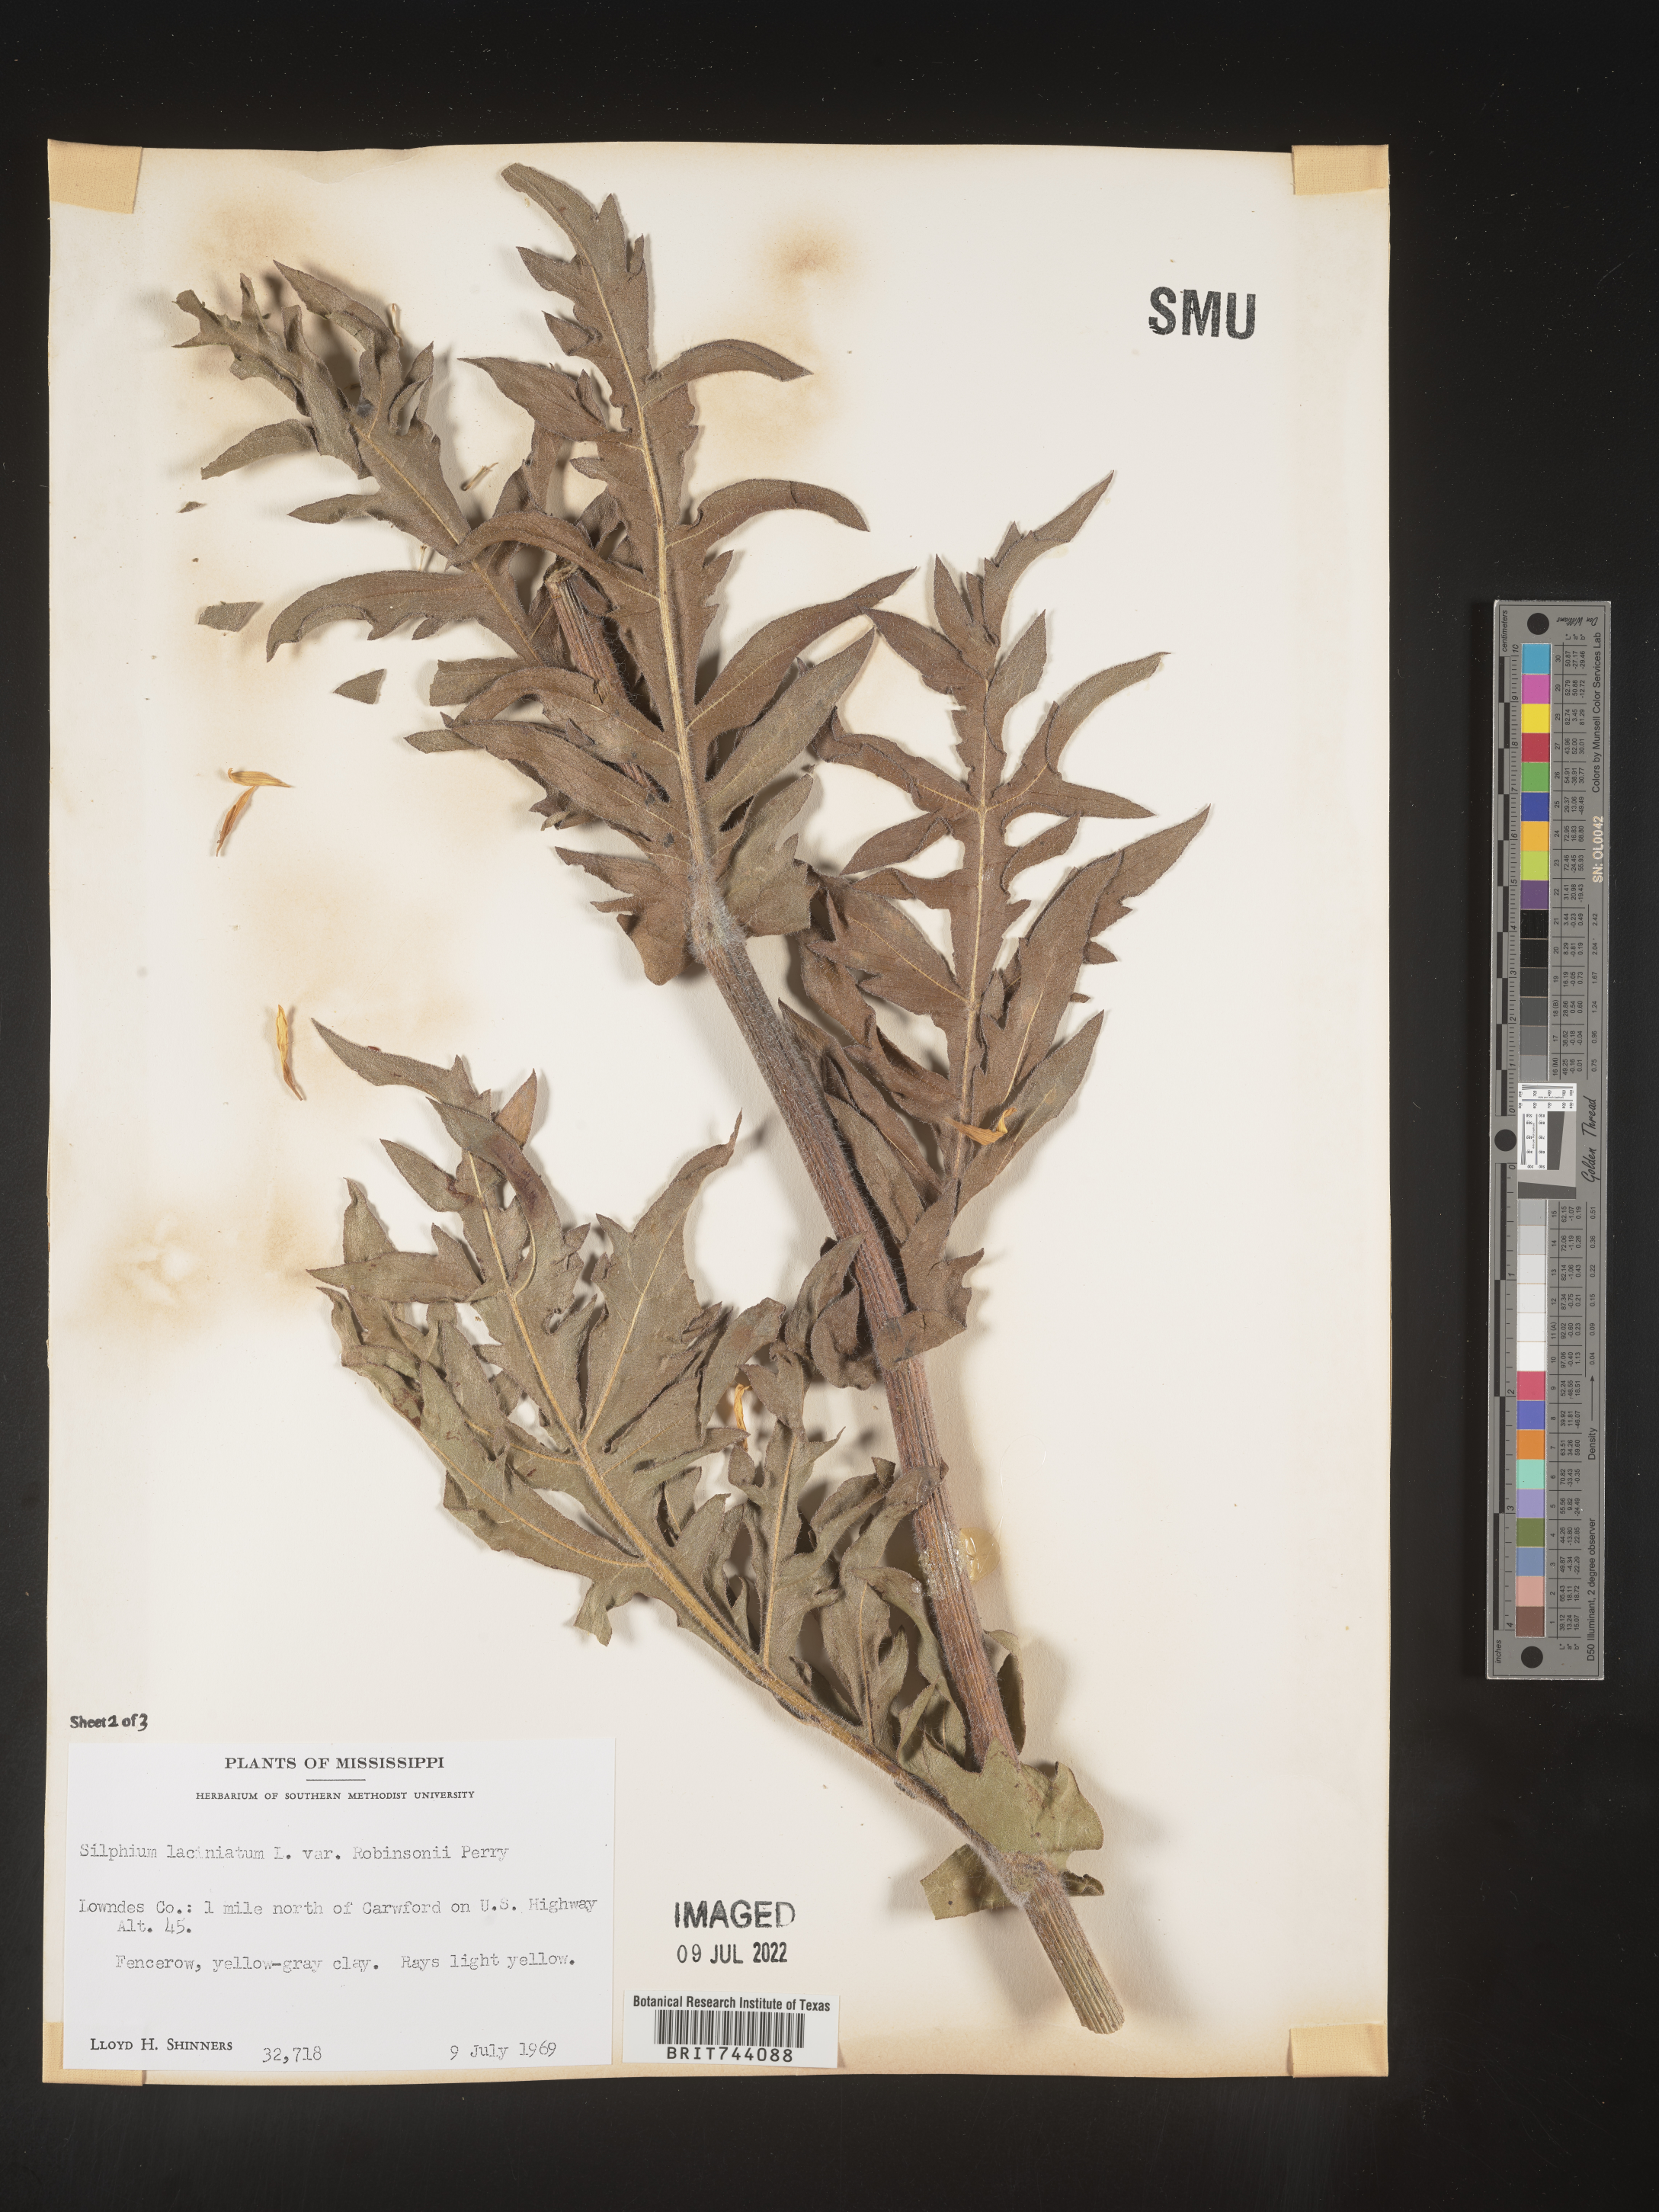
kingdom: Plantae
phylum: Tracheophyta
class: Magnoliopsida
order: Asterales
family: Asteraceae
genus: Silphium
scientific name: Silphium laciniatum
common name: Polarplant
